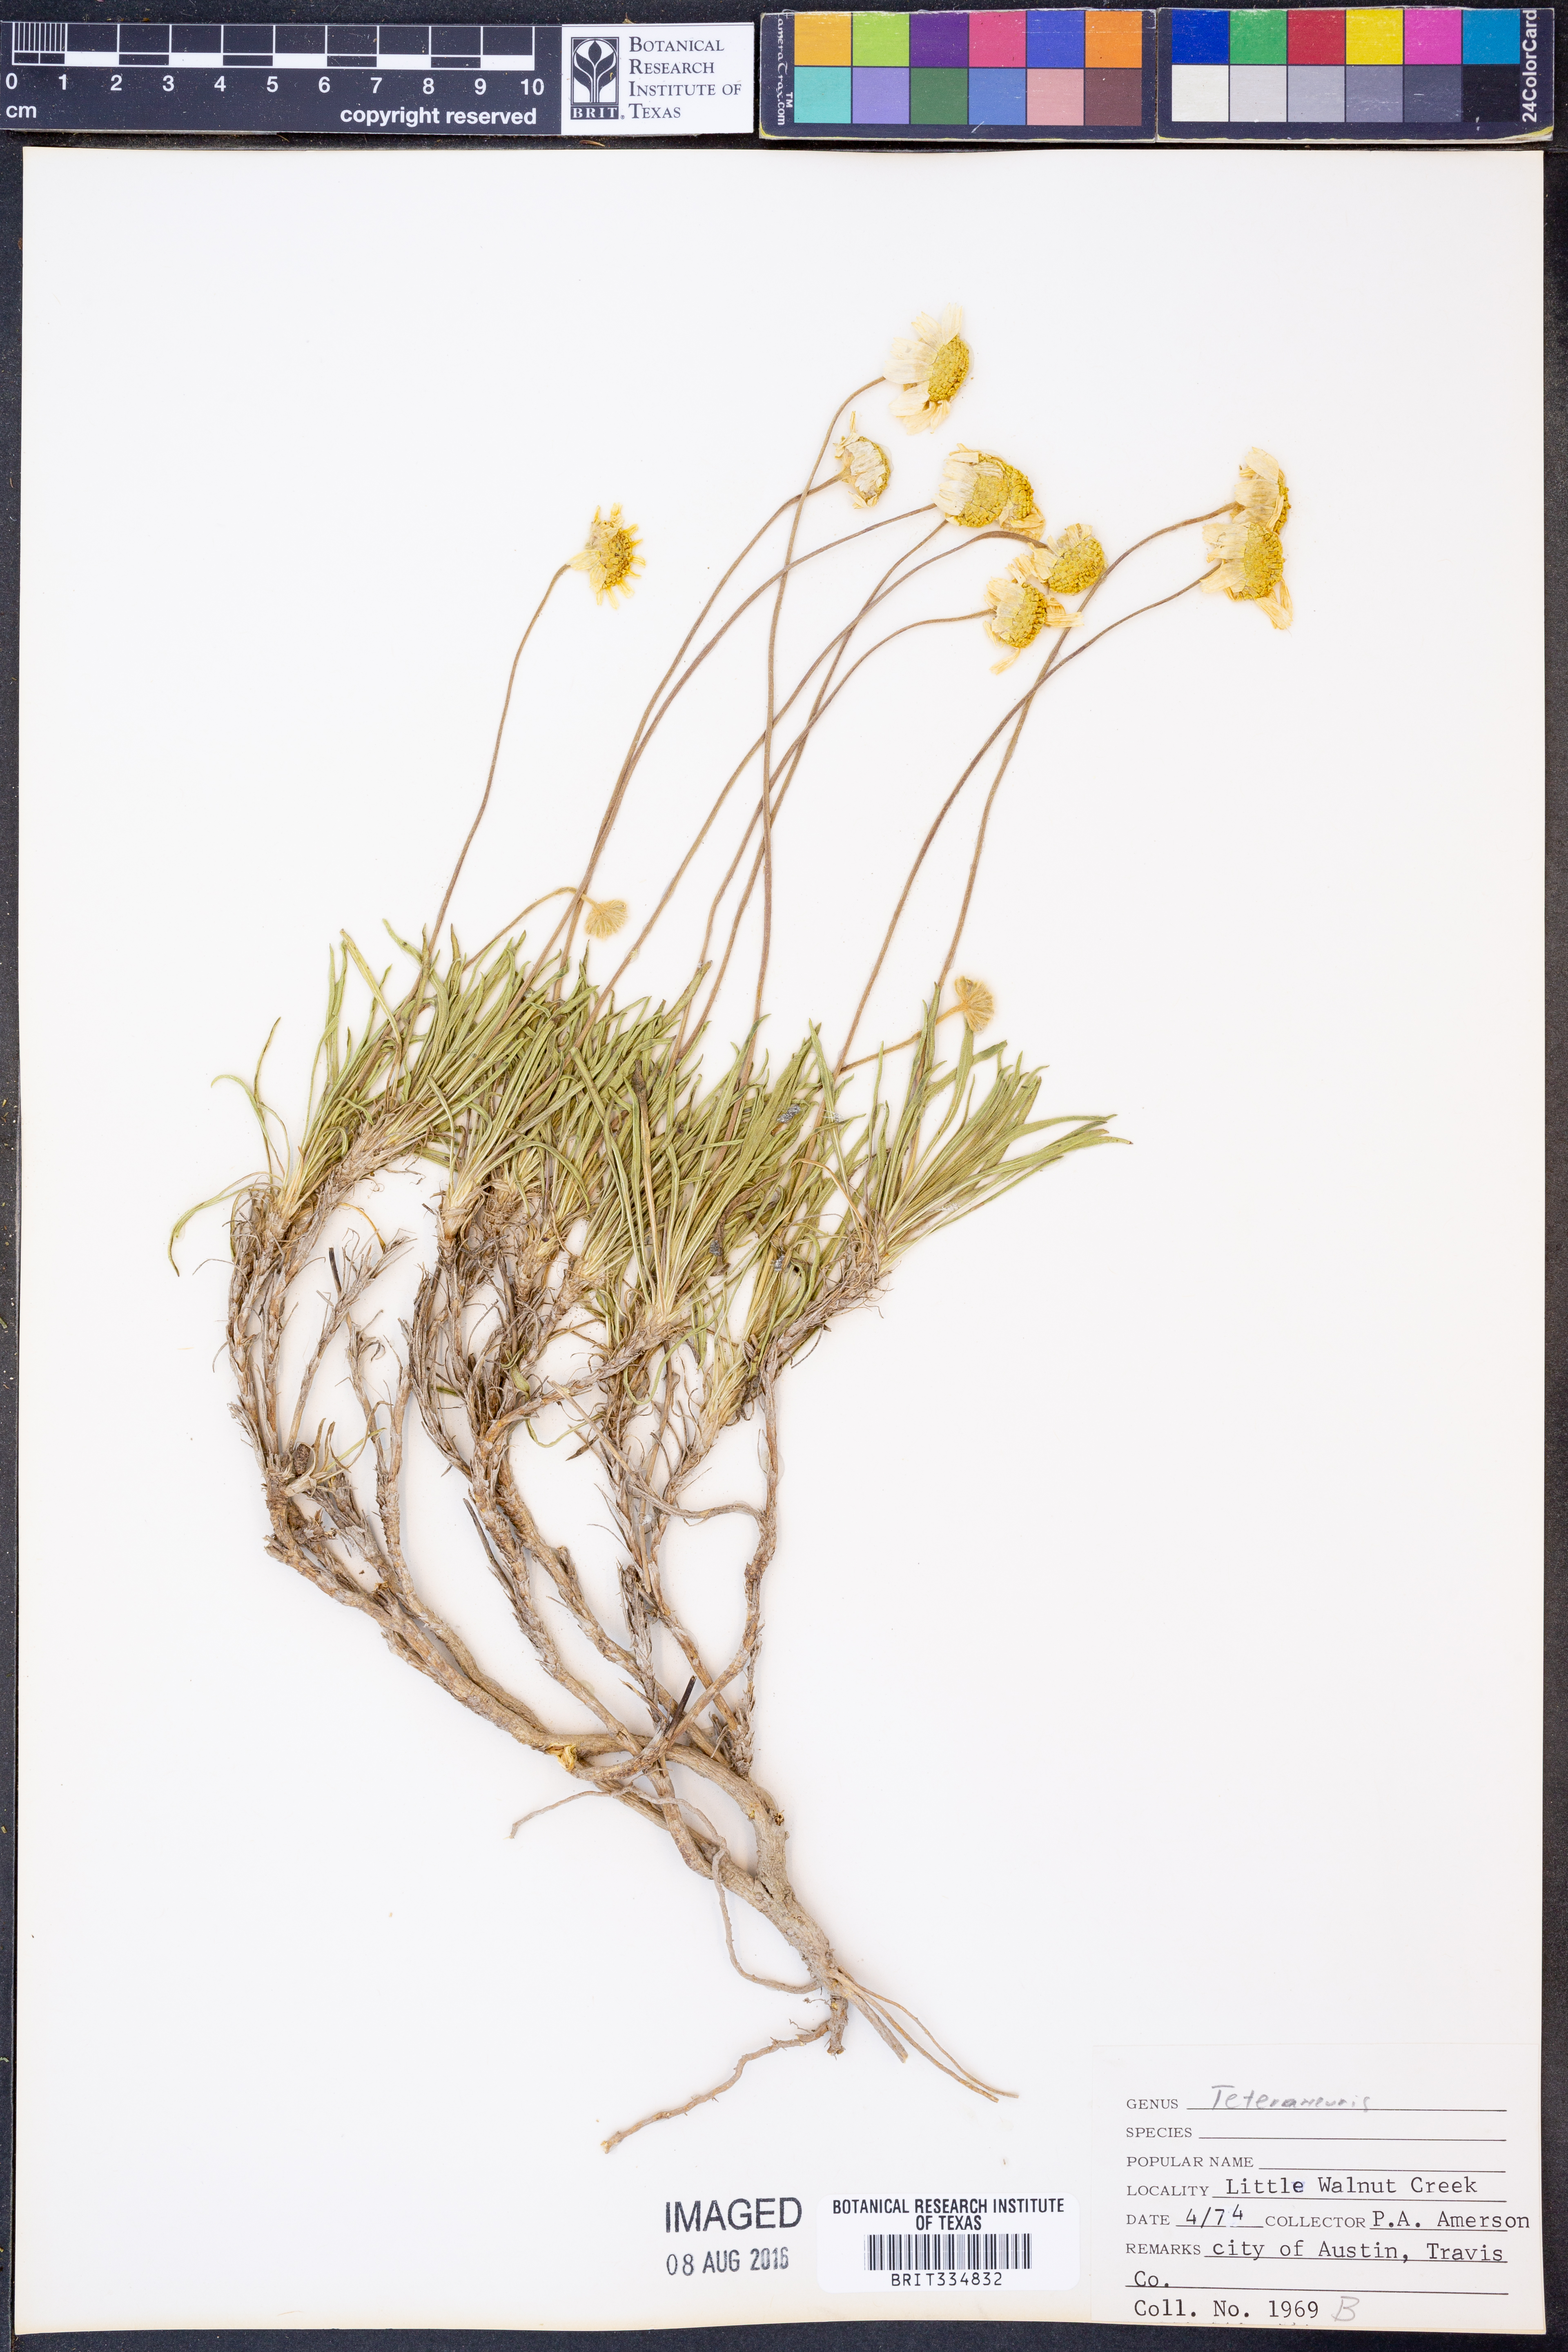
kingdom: Plantae
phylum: Tracheophyta
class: Magnoliopsida
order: Asterales
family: Asteraceae
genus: Tetraneuris
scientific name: Tetraneuris
